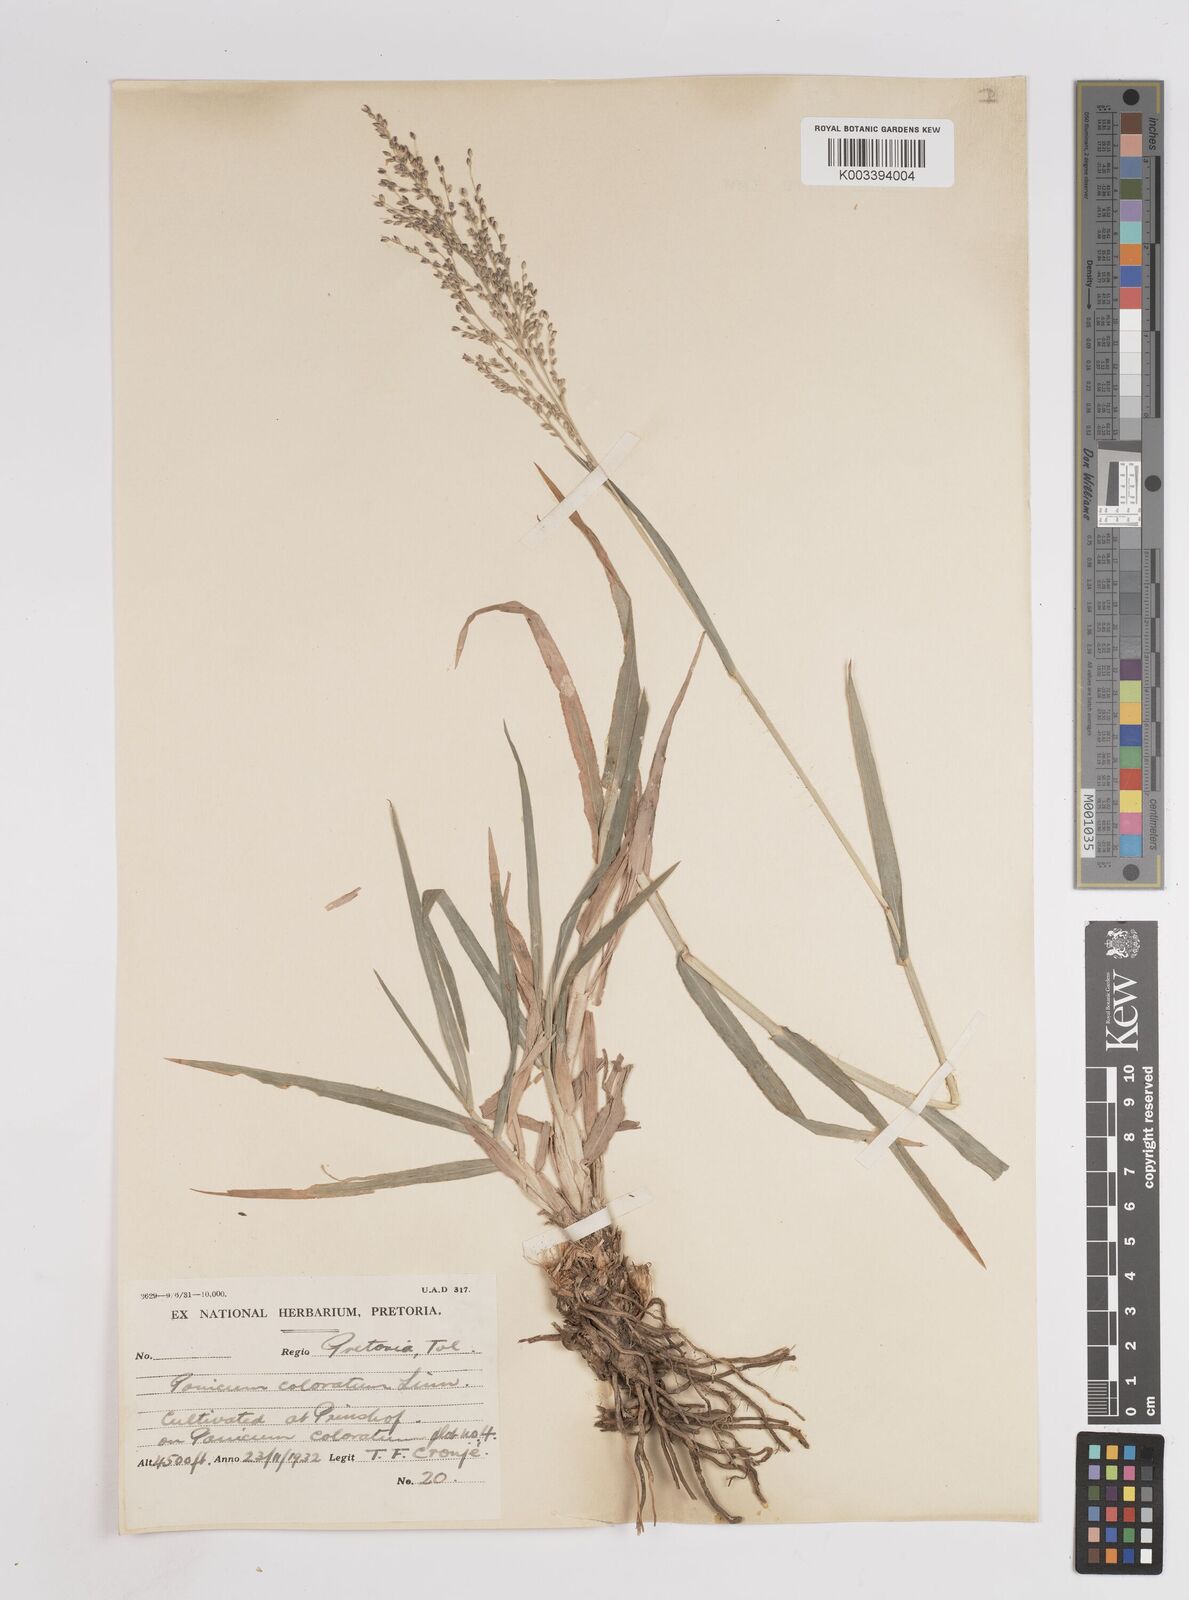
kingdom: Plantae
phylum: Tracheophyta
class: Liliopsida
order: Poales
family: Poaceae
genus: Panicum
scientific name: Panicum coloratum
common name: Kleingrass
